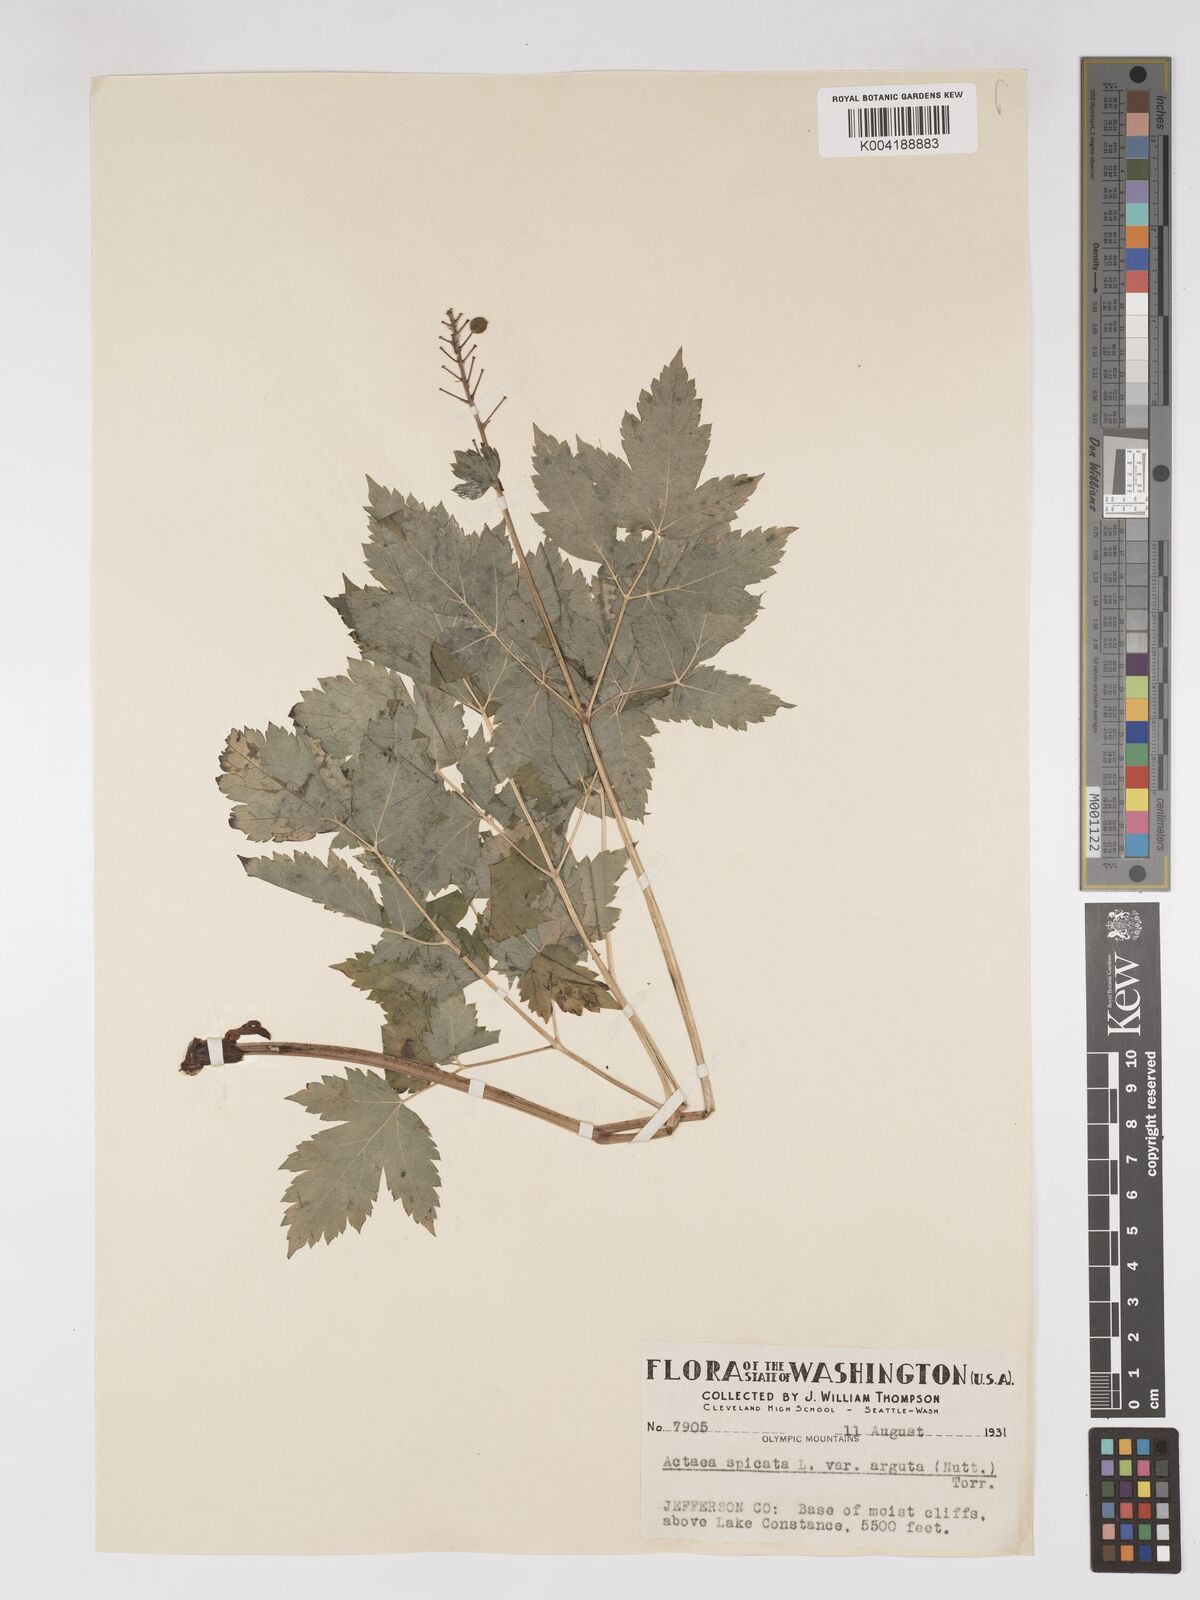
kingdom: Plantae
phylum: Tracheophyta
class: Magnoliopsida
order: Ranunculales
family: Ranunculaceae
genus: Actaea
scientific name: Actaea spicata
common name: Baneberry
